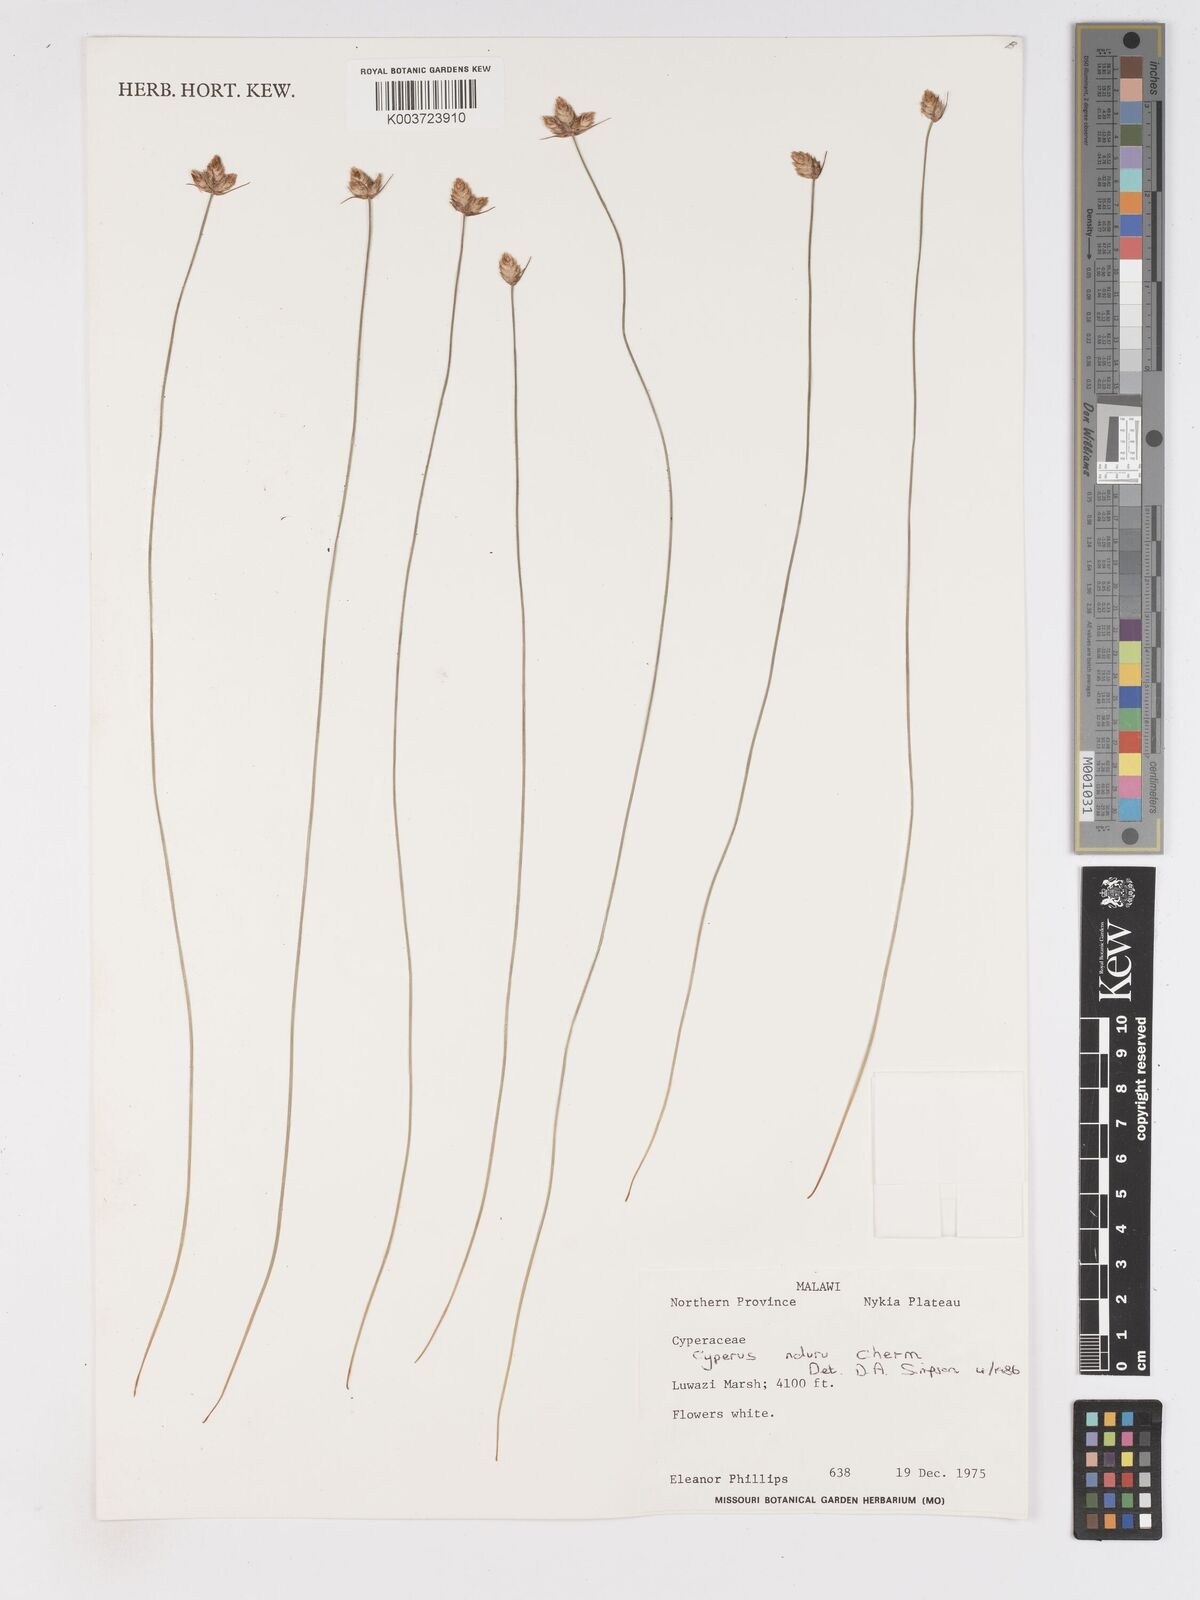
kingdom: Plantae
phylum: Tracheophyta
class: Liliopsida
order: Poales
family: Cyperaceae
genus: Cyperus
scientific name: Cyperus nduru
